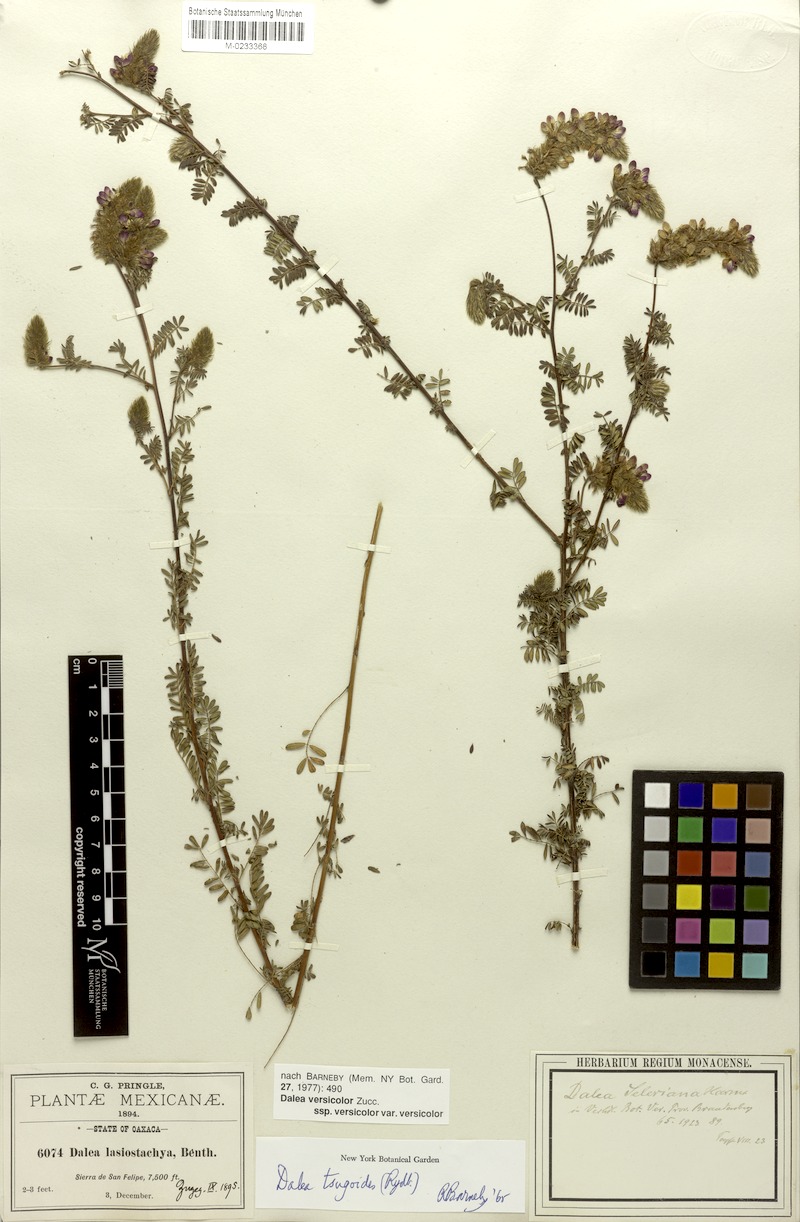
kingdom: Plantae
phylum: Tracheophyta
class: Magnoliopsida
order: Fabales
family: Fabaceae
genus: Dalea
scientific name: Dalea versicolor
